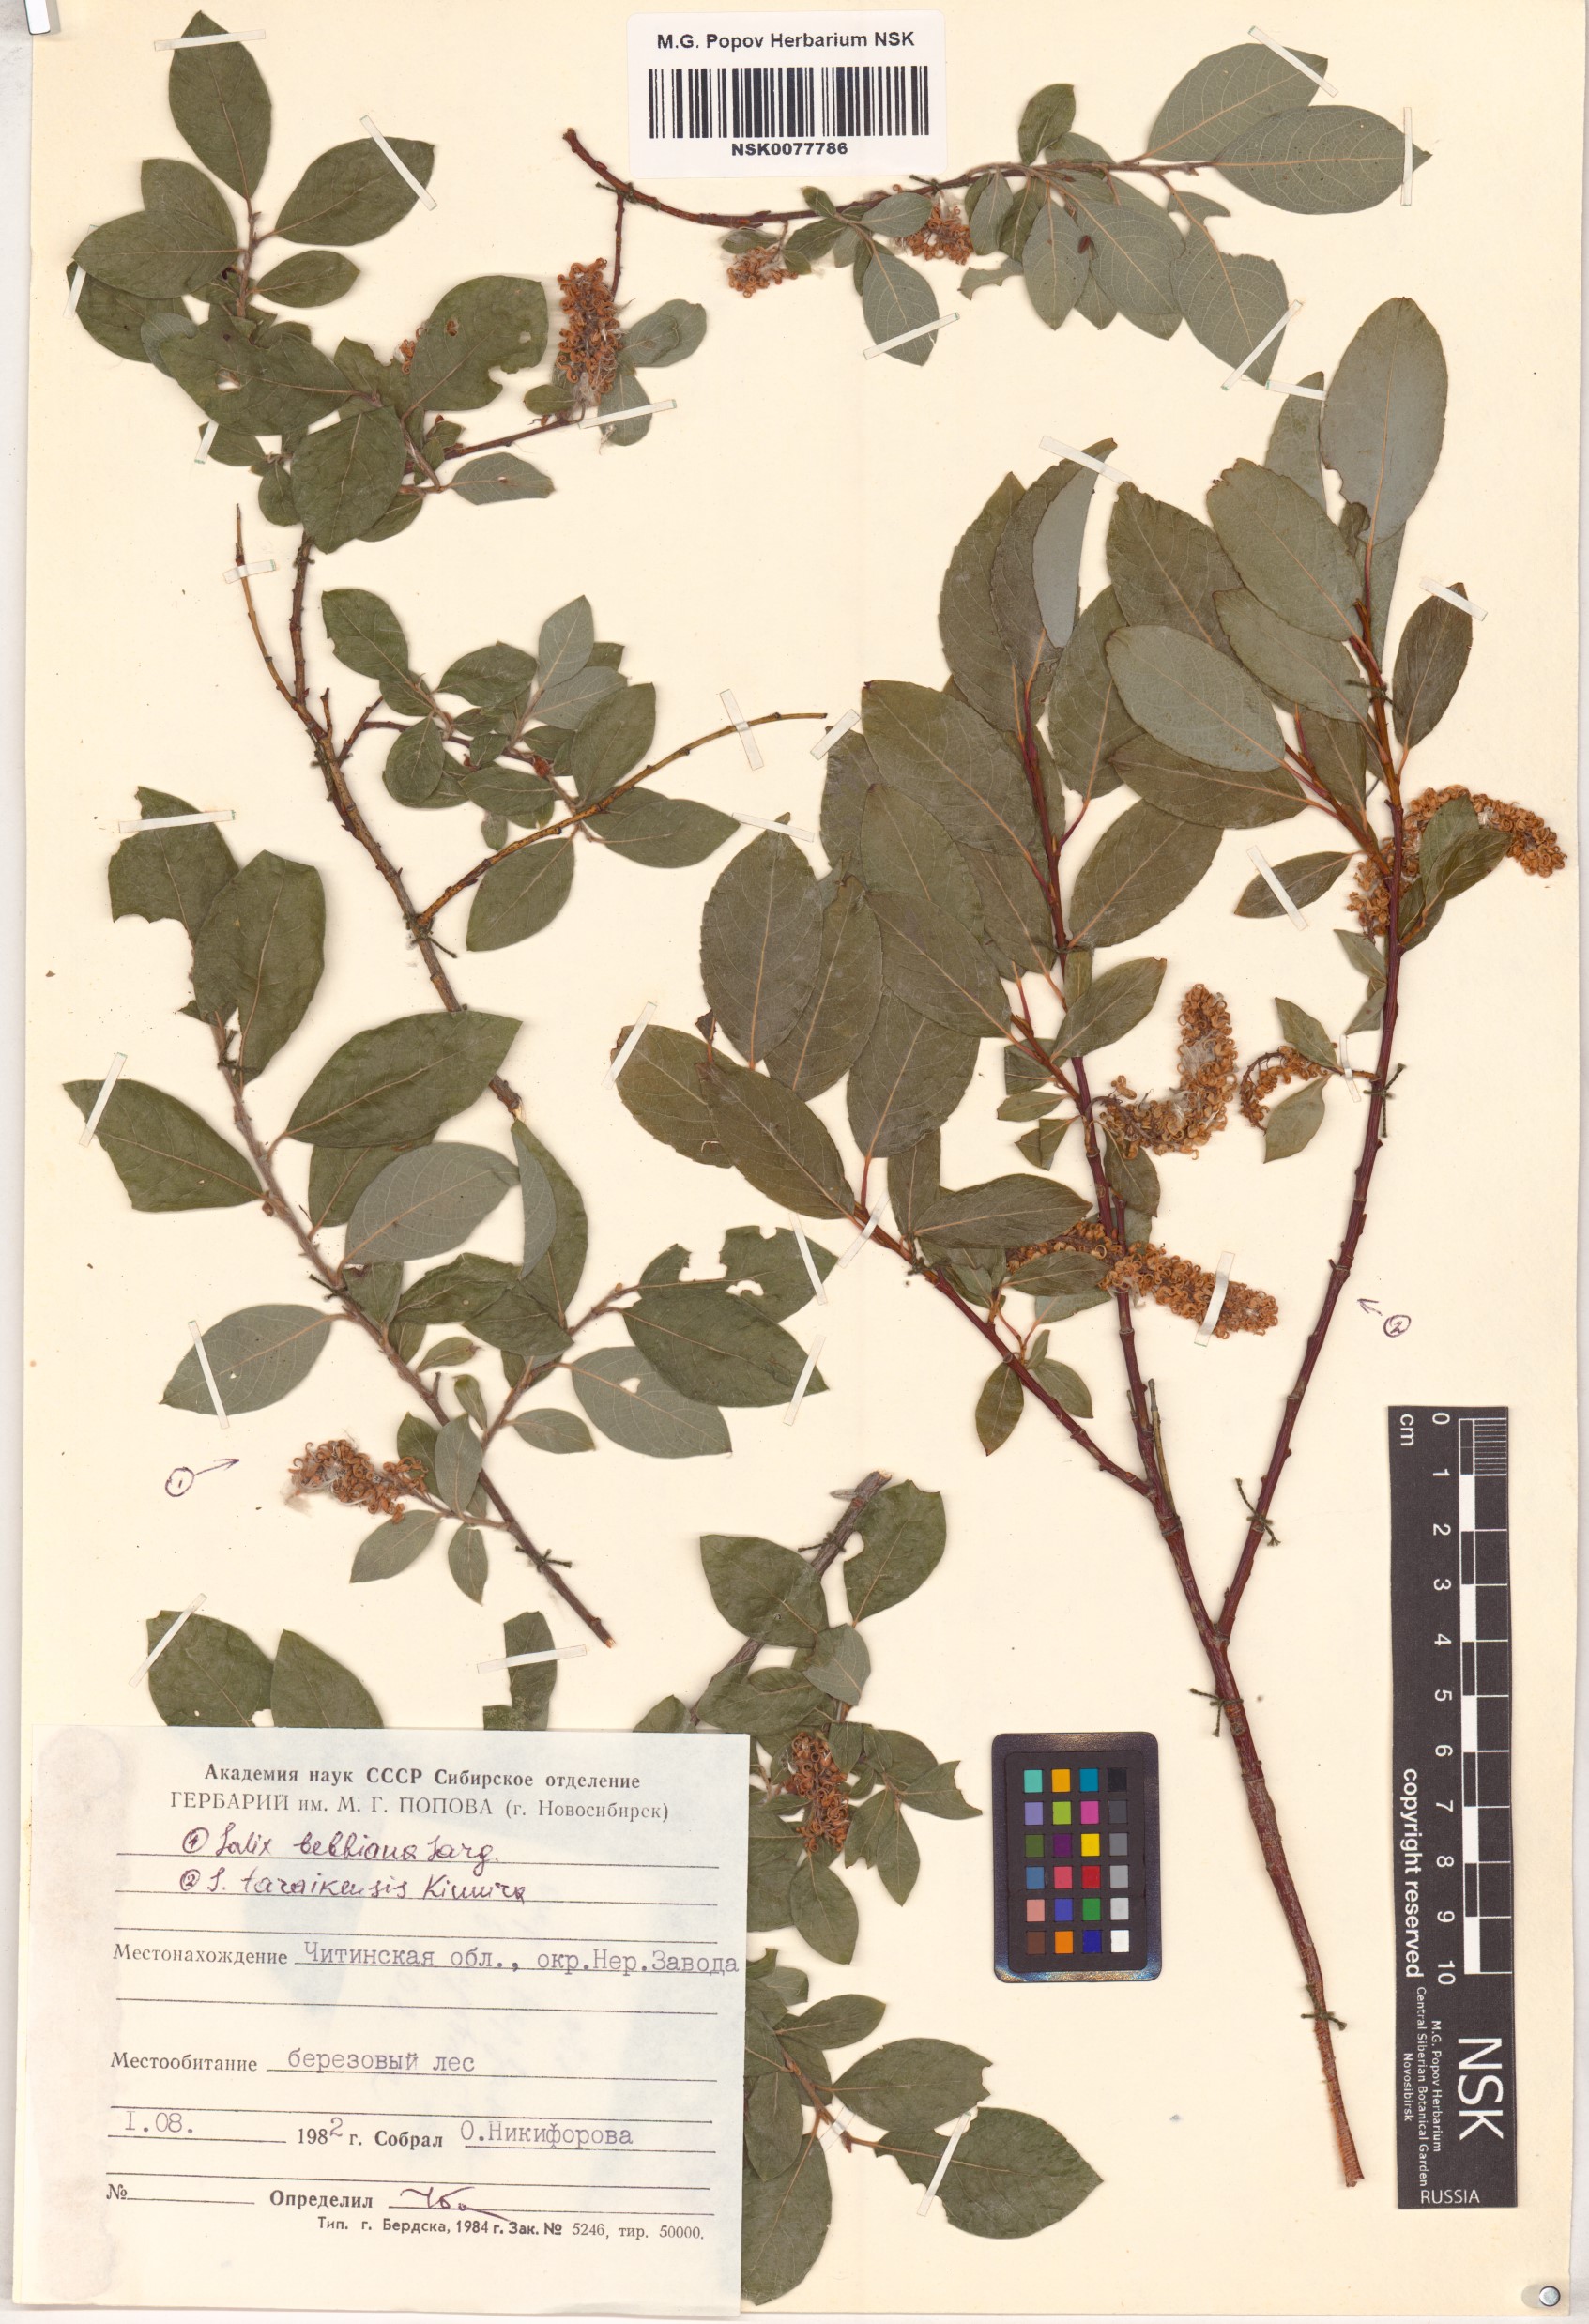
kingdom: Plantae
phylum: Tracheophyta
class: Magnoliopsida
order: Malpighiales
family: Salicaceae
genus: Salix
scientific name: Salix bebbiana
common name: Bebb's willow
